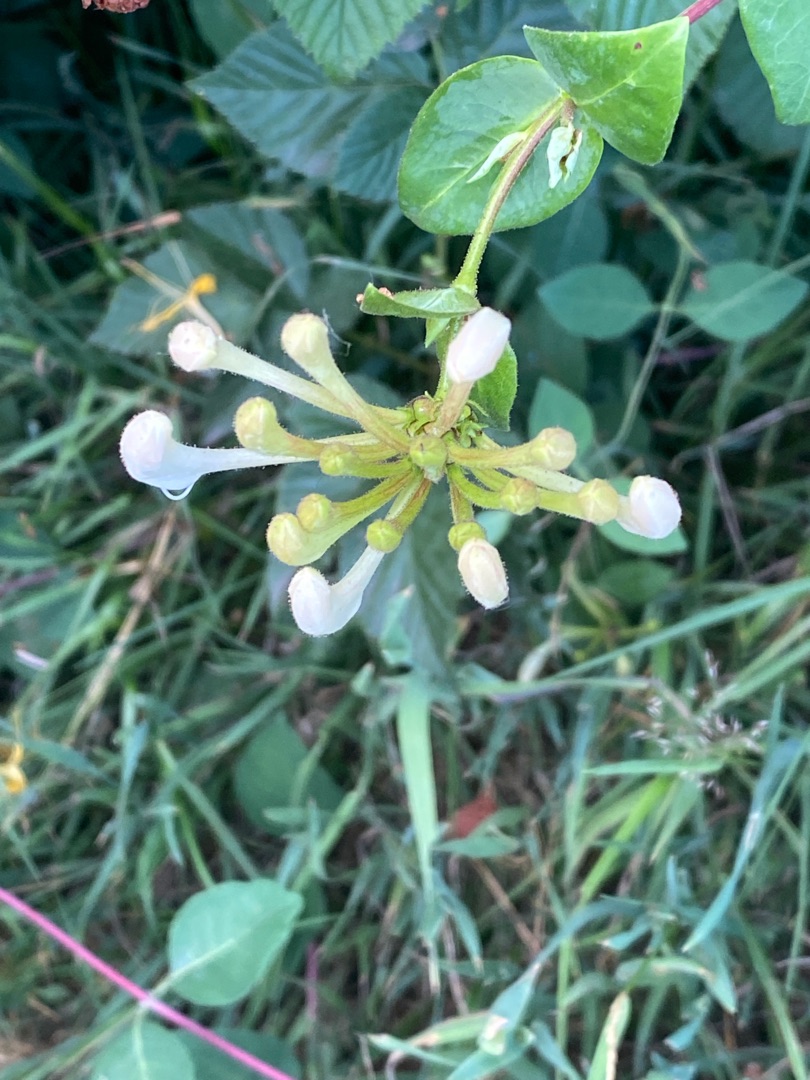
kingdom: Plantae
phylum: Tracheophyta
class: Magnoliopsida
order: Dipsacales
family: Caprifoliaceae
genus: Lonicera
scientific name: Lonicera periclymenum
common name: Almindelig gedeblad
